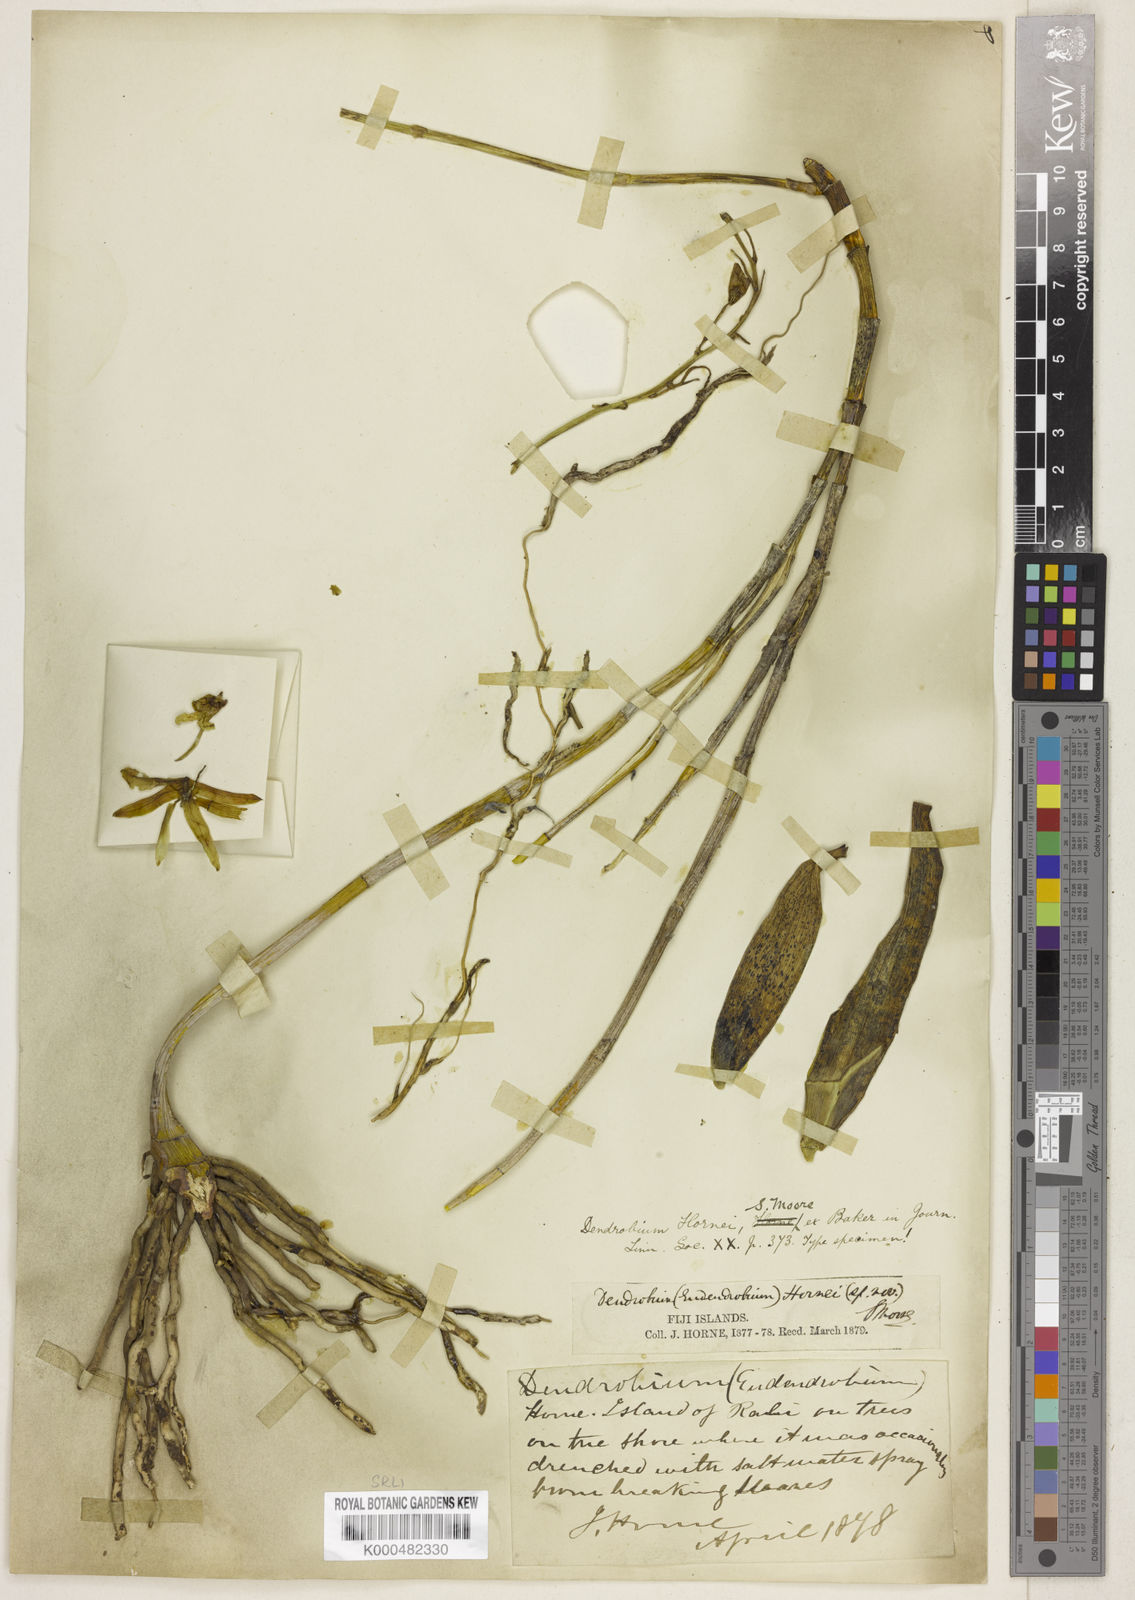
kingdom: Plantae
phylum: Tracheophyta
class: Liliopsida
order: Asparagales
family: Orchidaceae
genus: Dendrobium
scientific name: Dendrobium hornei
